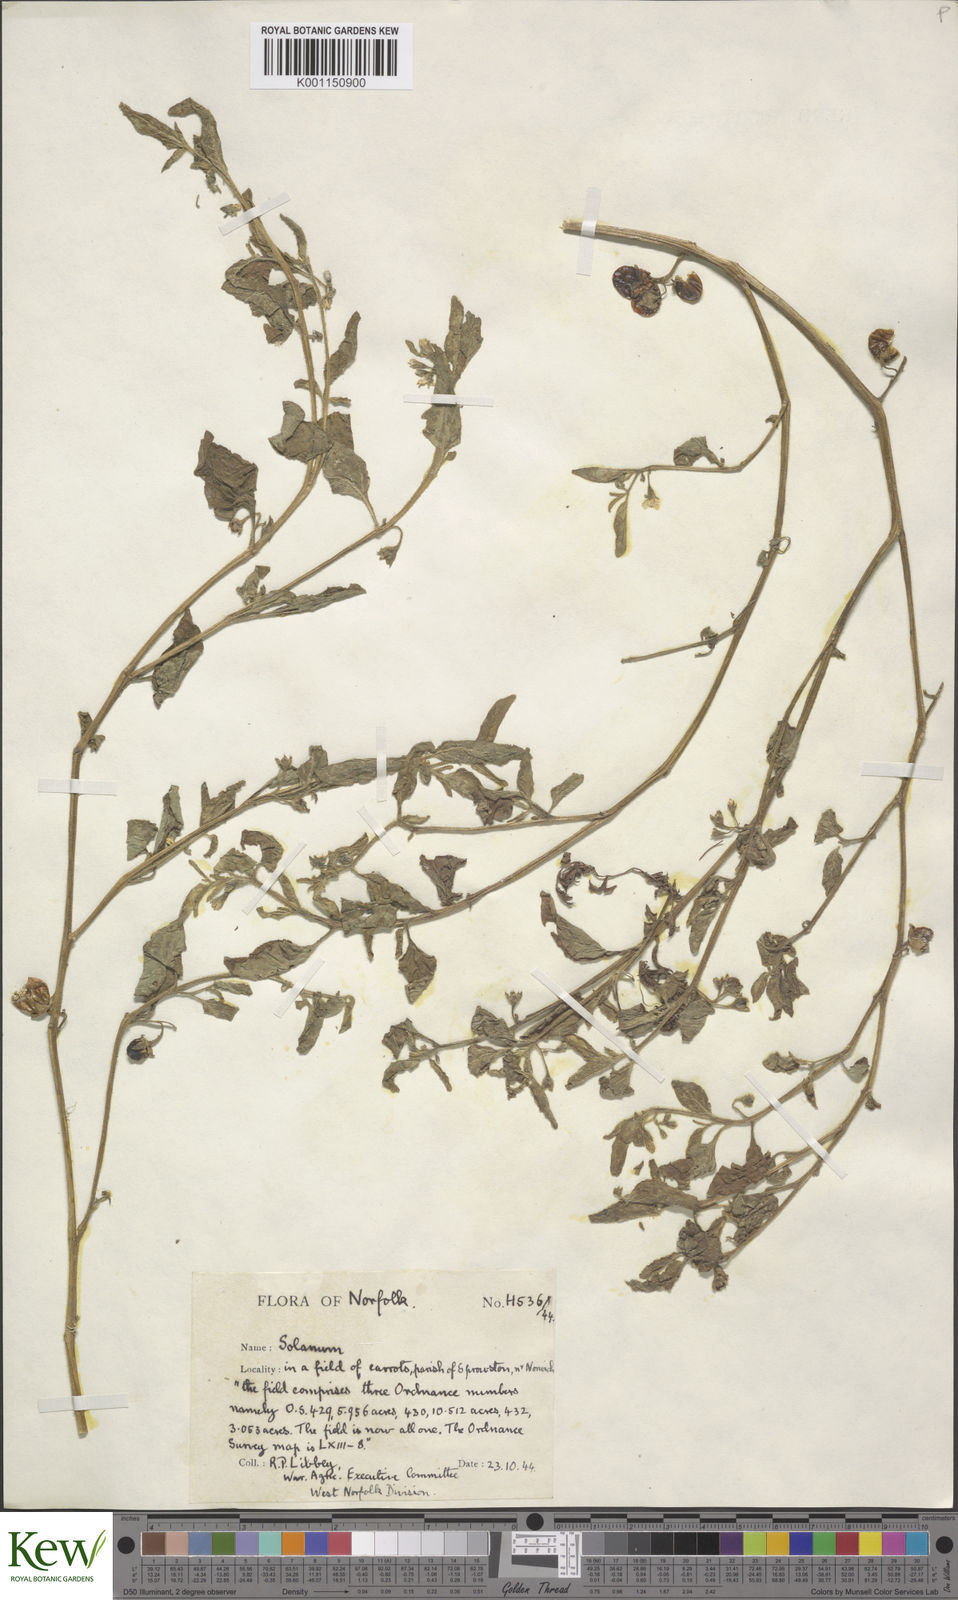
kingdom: Plantae
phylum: Tracheophyta
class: Magnoliopsida
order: Solanales
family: Solanaceae
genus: Solanum
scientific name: Solanum nitidibaccatum
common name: Hairy nightshade
